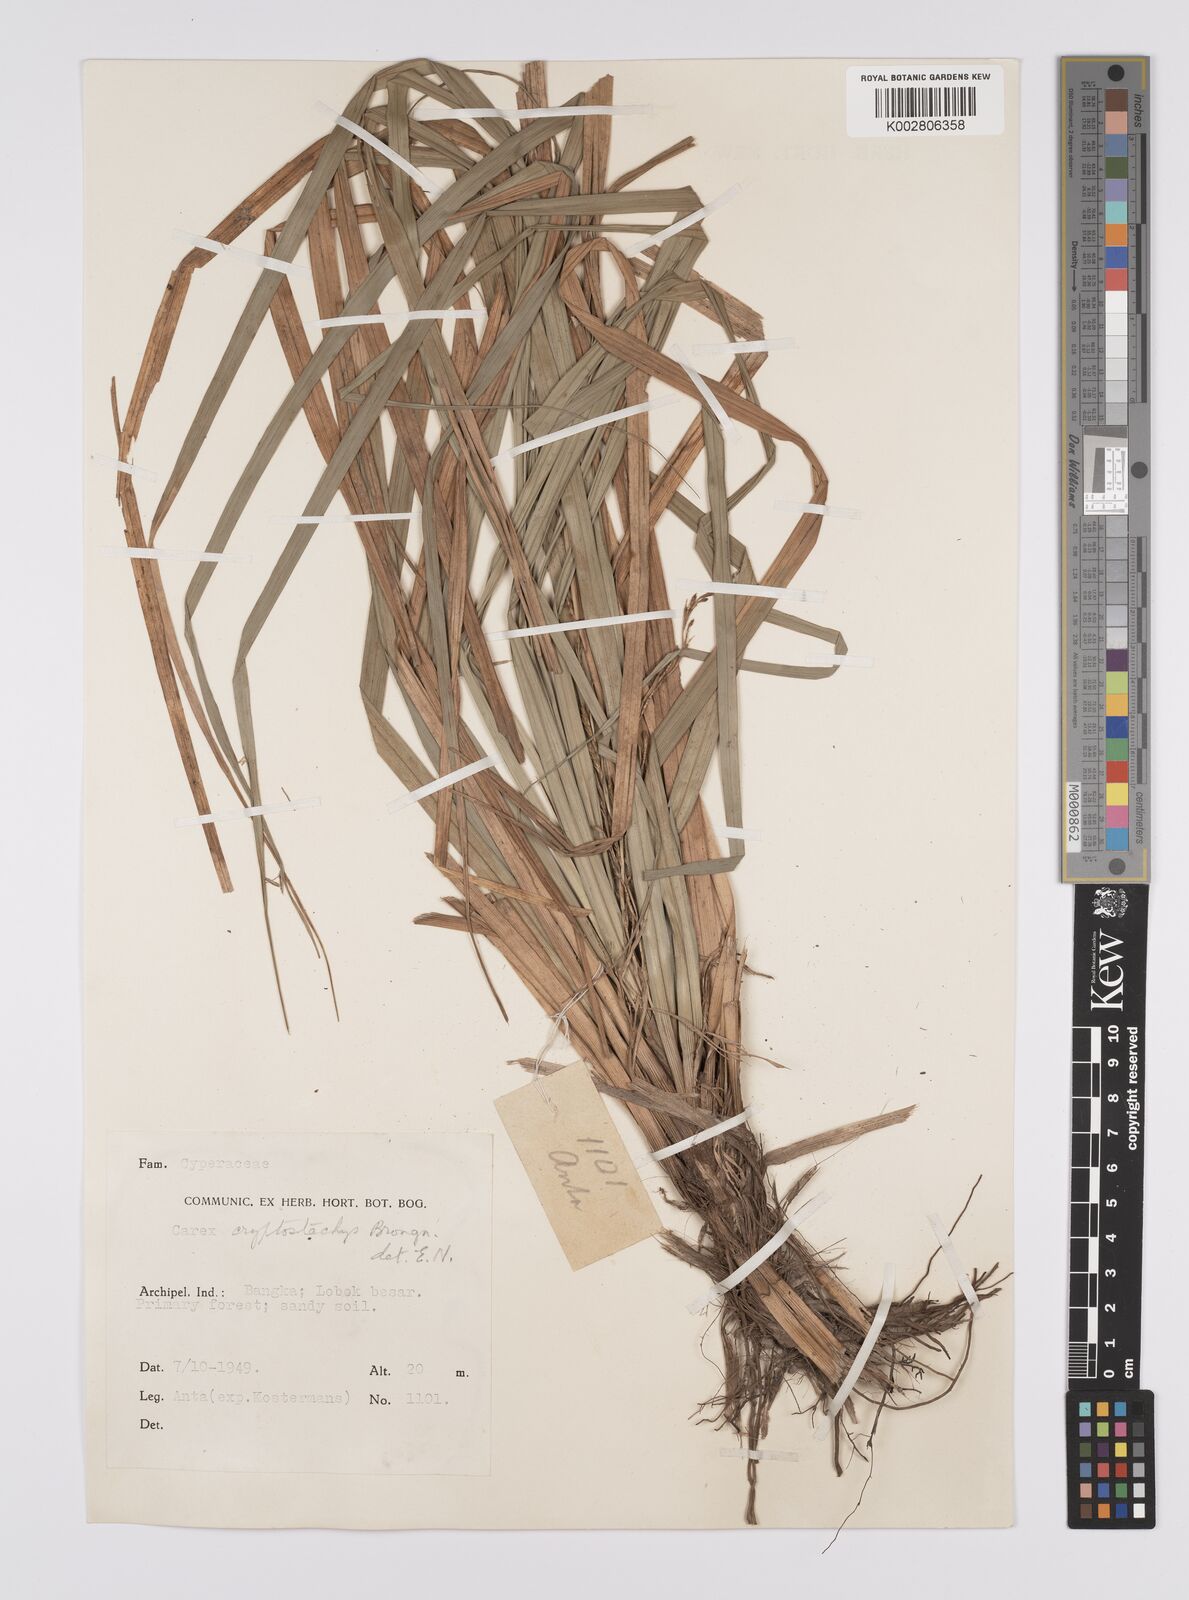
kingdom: Plantae
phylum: Tracheophyta
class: Liliopsida
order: Poales
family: Cyperaceae
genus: Carex
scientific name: Carex cryptostachys
